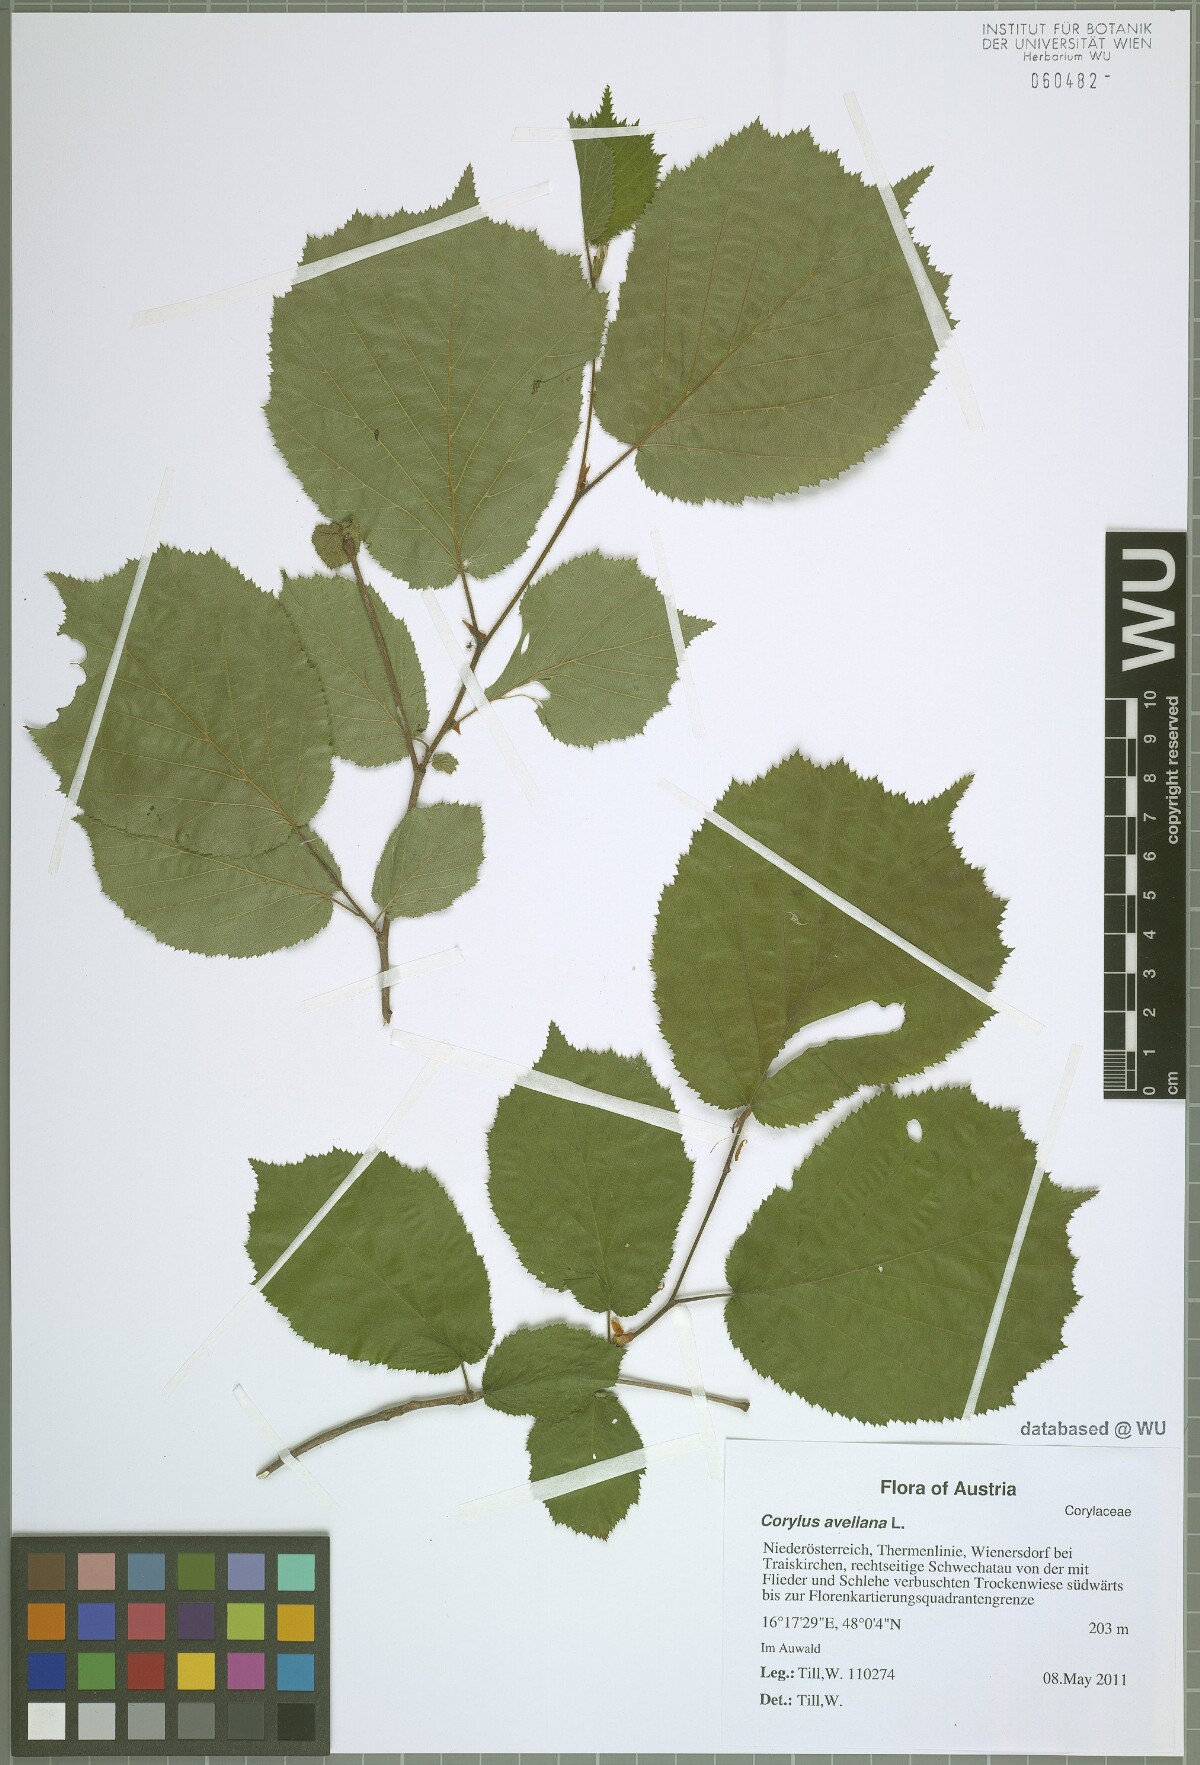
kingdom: Plantae
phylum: Tracheophyta
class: Magnoliopsida
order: Fagales
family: Betulaceae
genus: Corylus
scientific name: Corylus avellana
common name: European hazel
